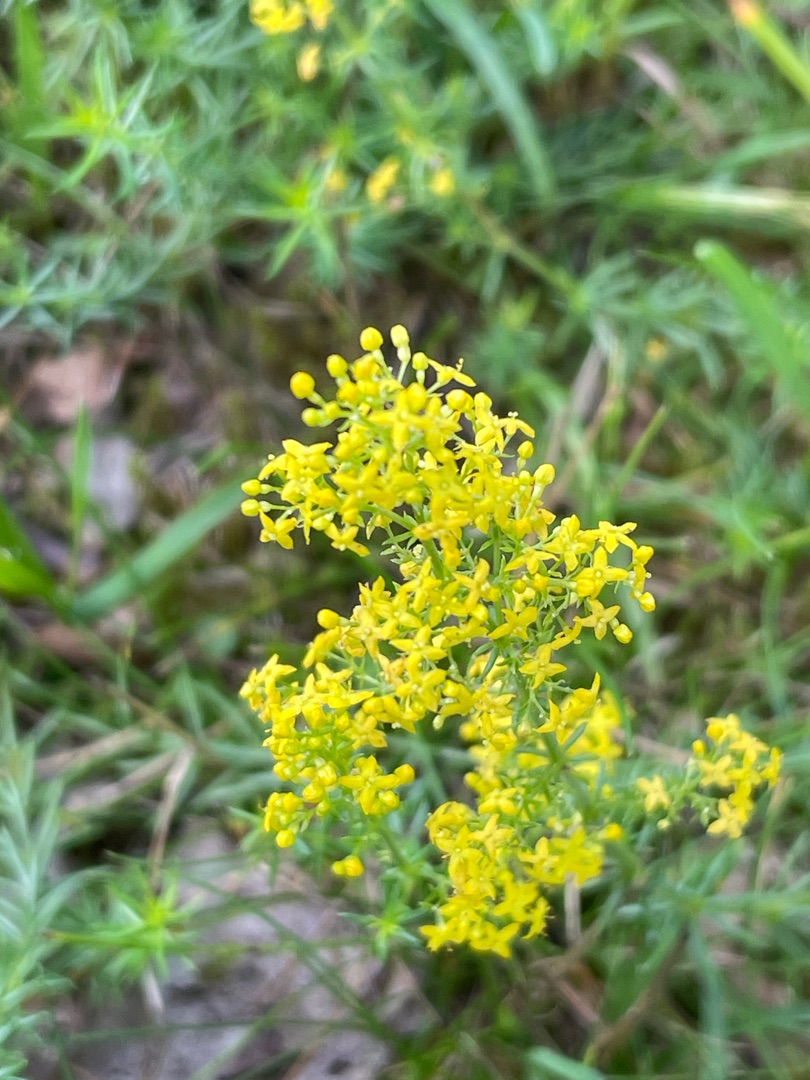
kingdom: Plantae
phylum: Tracheophyta
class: Magnoliopsida
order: Gentianales
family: Rubiaceae
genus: Galium
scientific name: Galium verum
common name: Gul snerre
